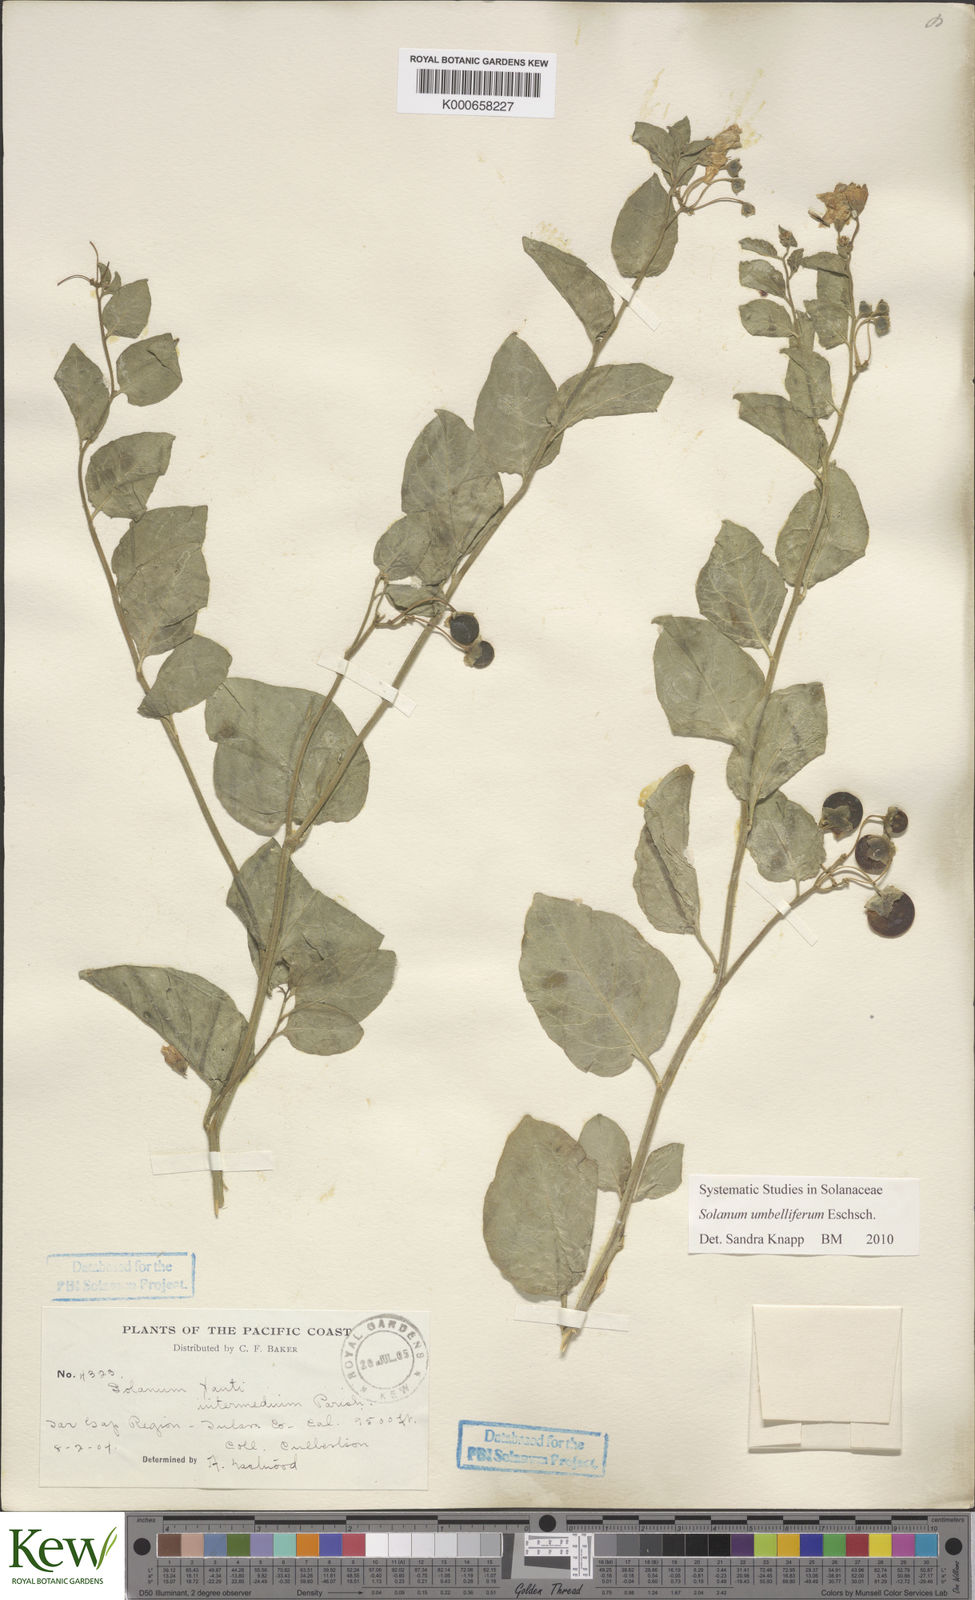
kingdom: Plantae
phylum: Tracheophyta
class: Magnoliopsida
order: Solanales
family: Solanaceae
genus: Solanum
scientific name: Solanum umbelliferum
